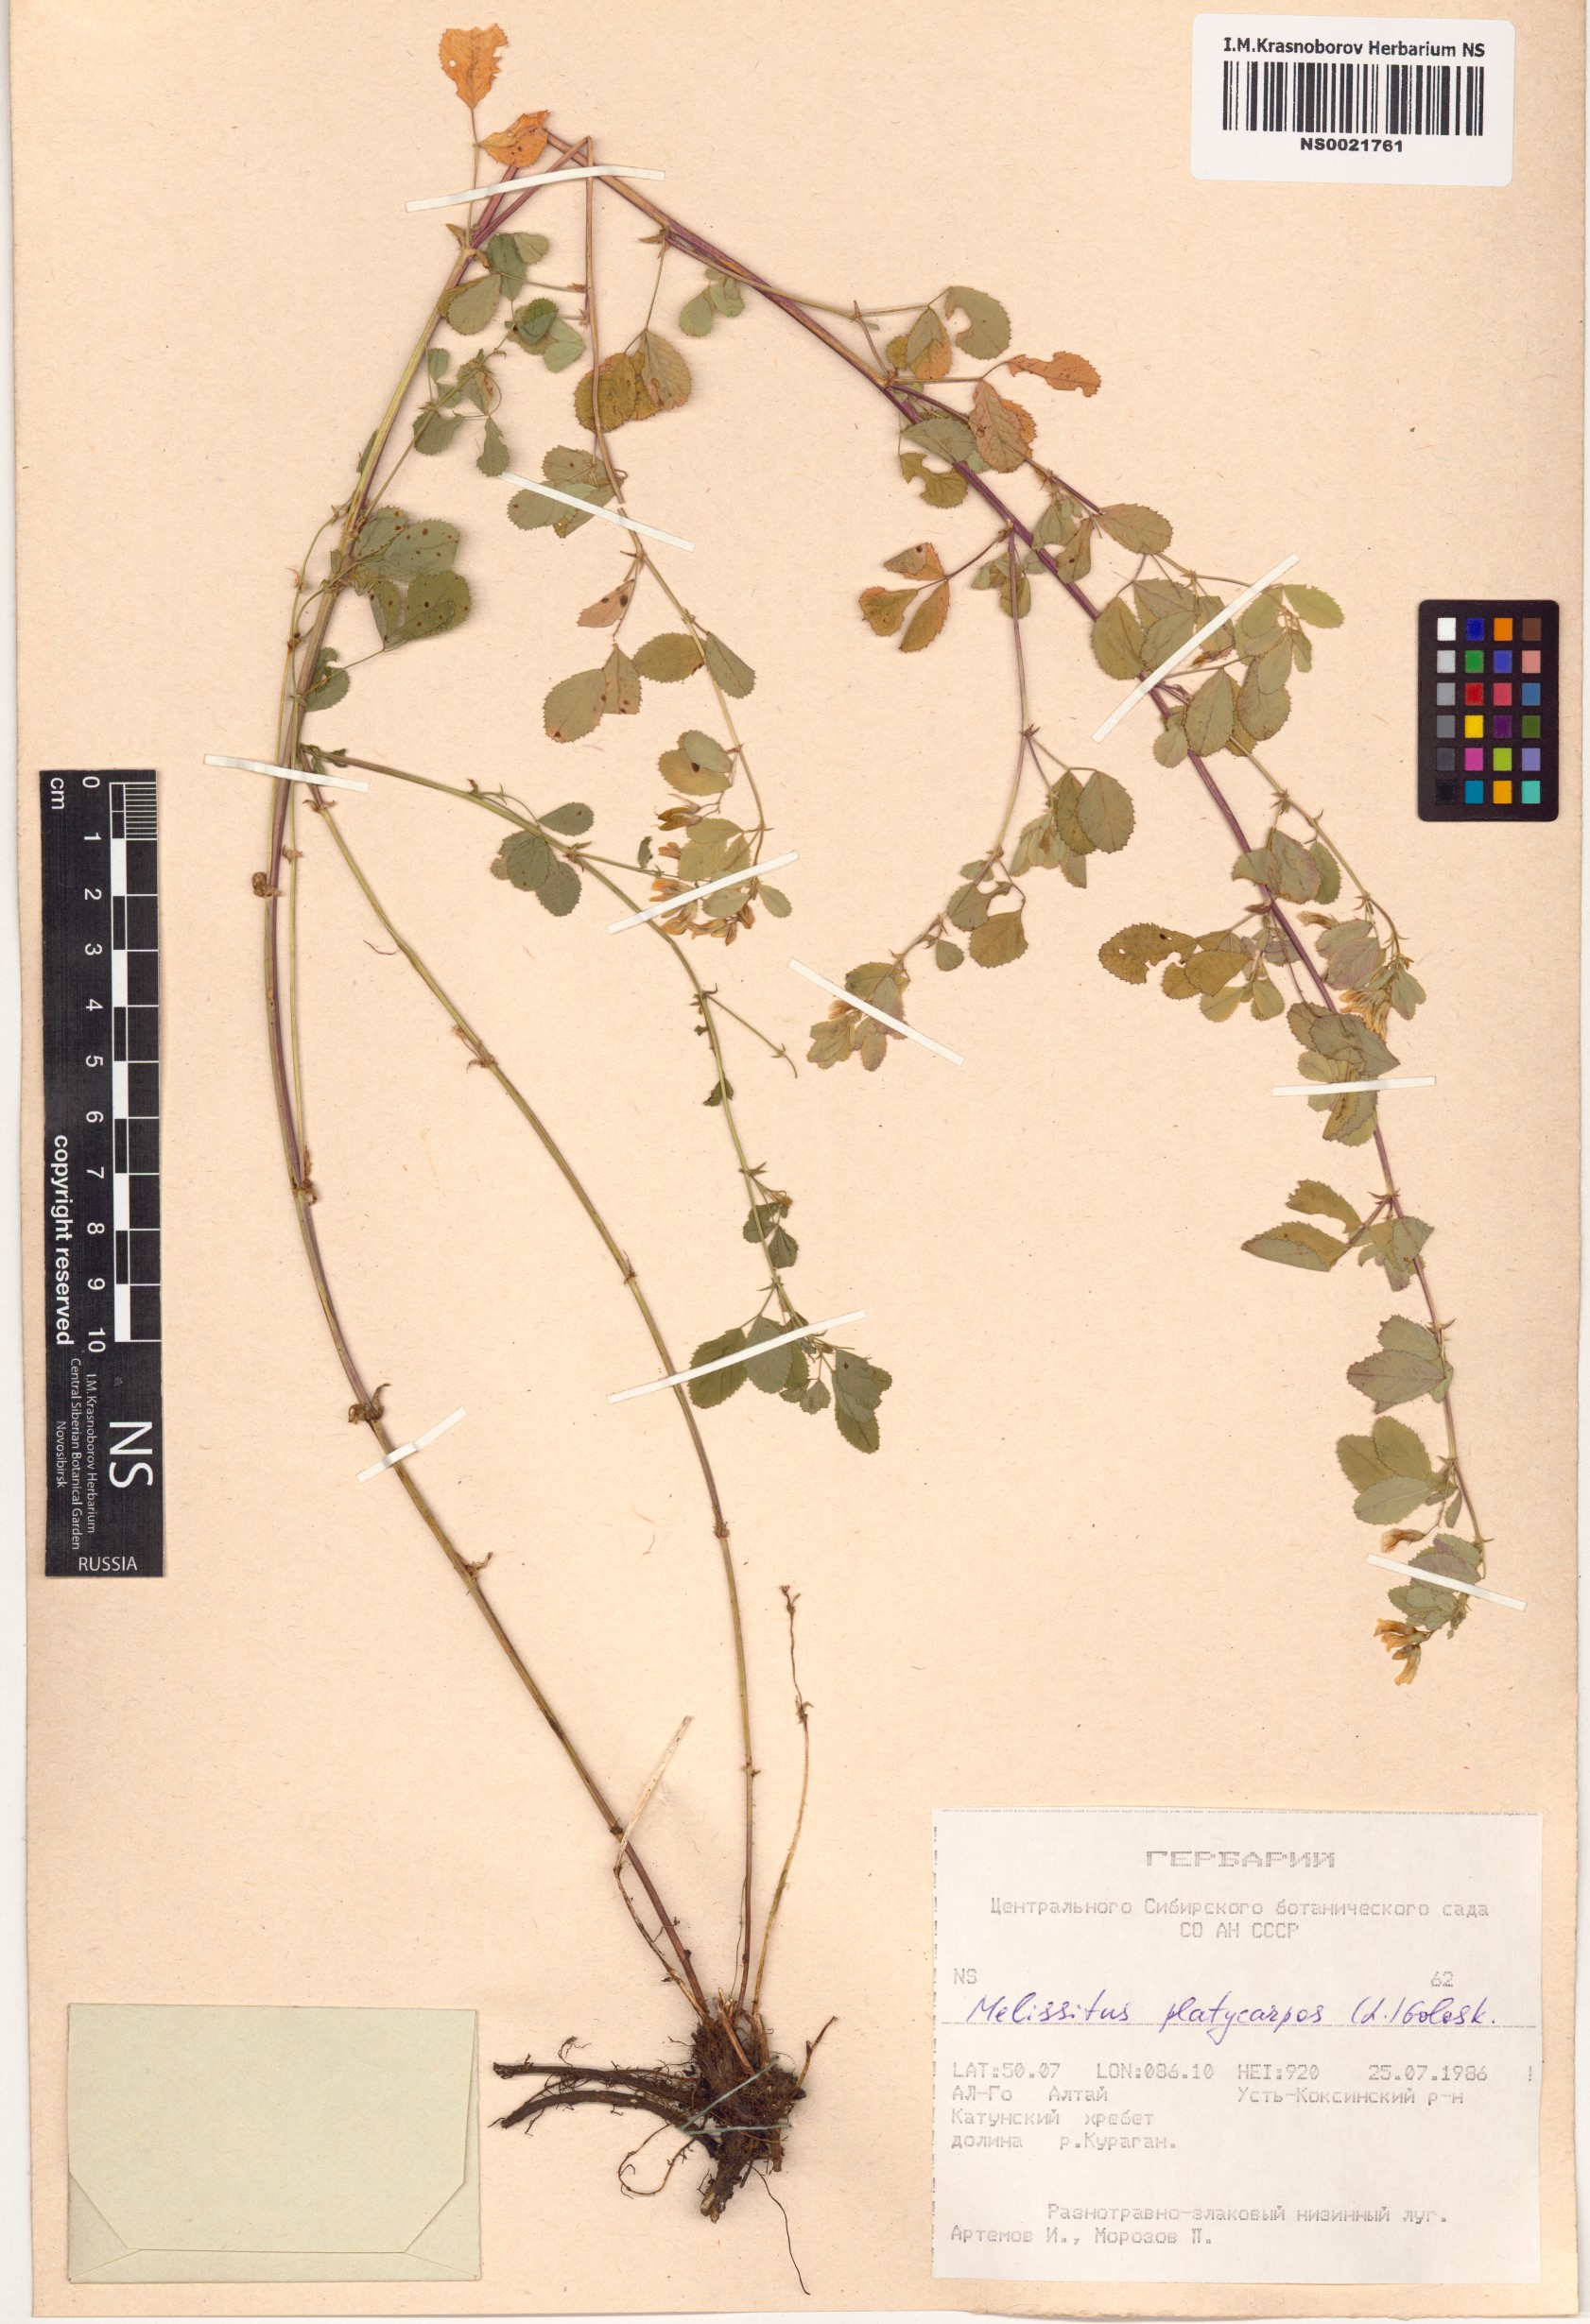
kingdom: Plantae
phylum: Tracheophyta
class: Magnoliopsida
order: Fabales
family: Fabaceae
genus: Medicago
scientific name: Medicago platycarpos
